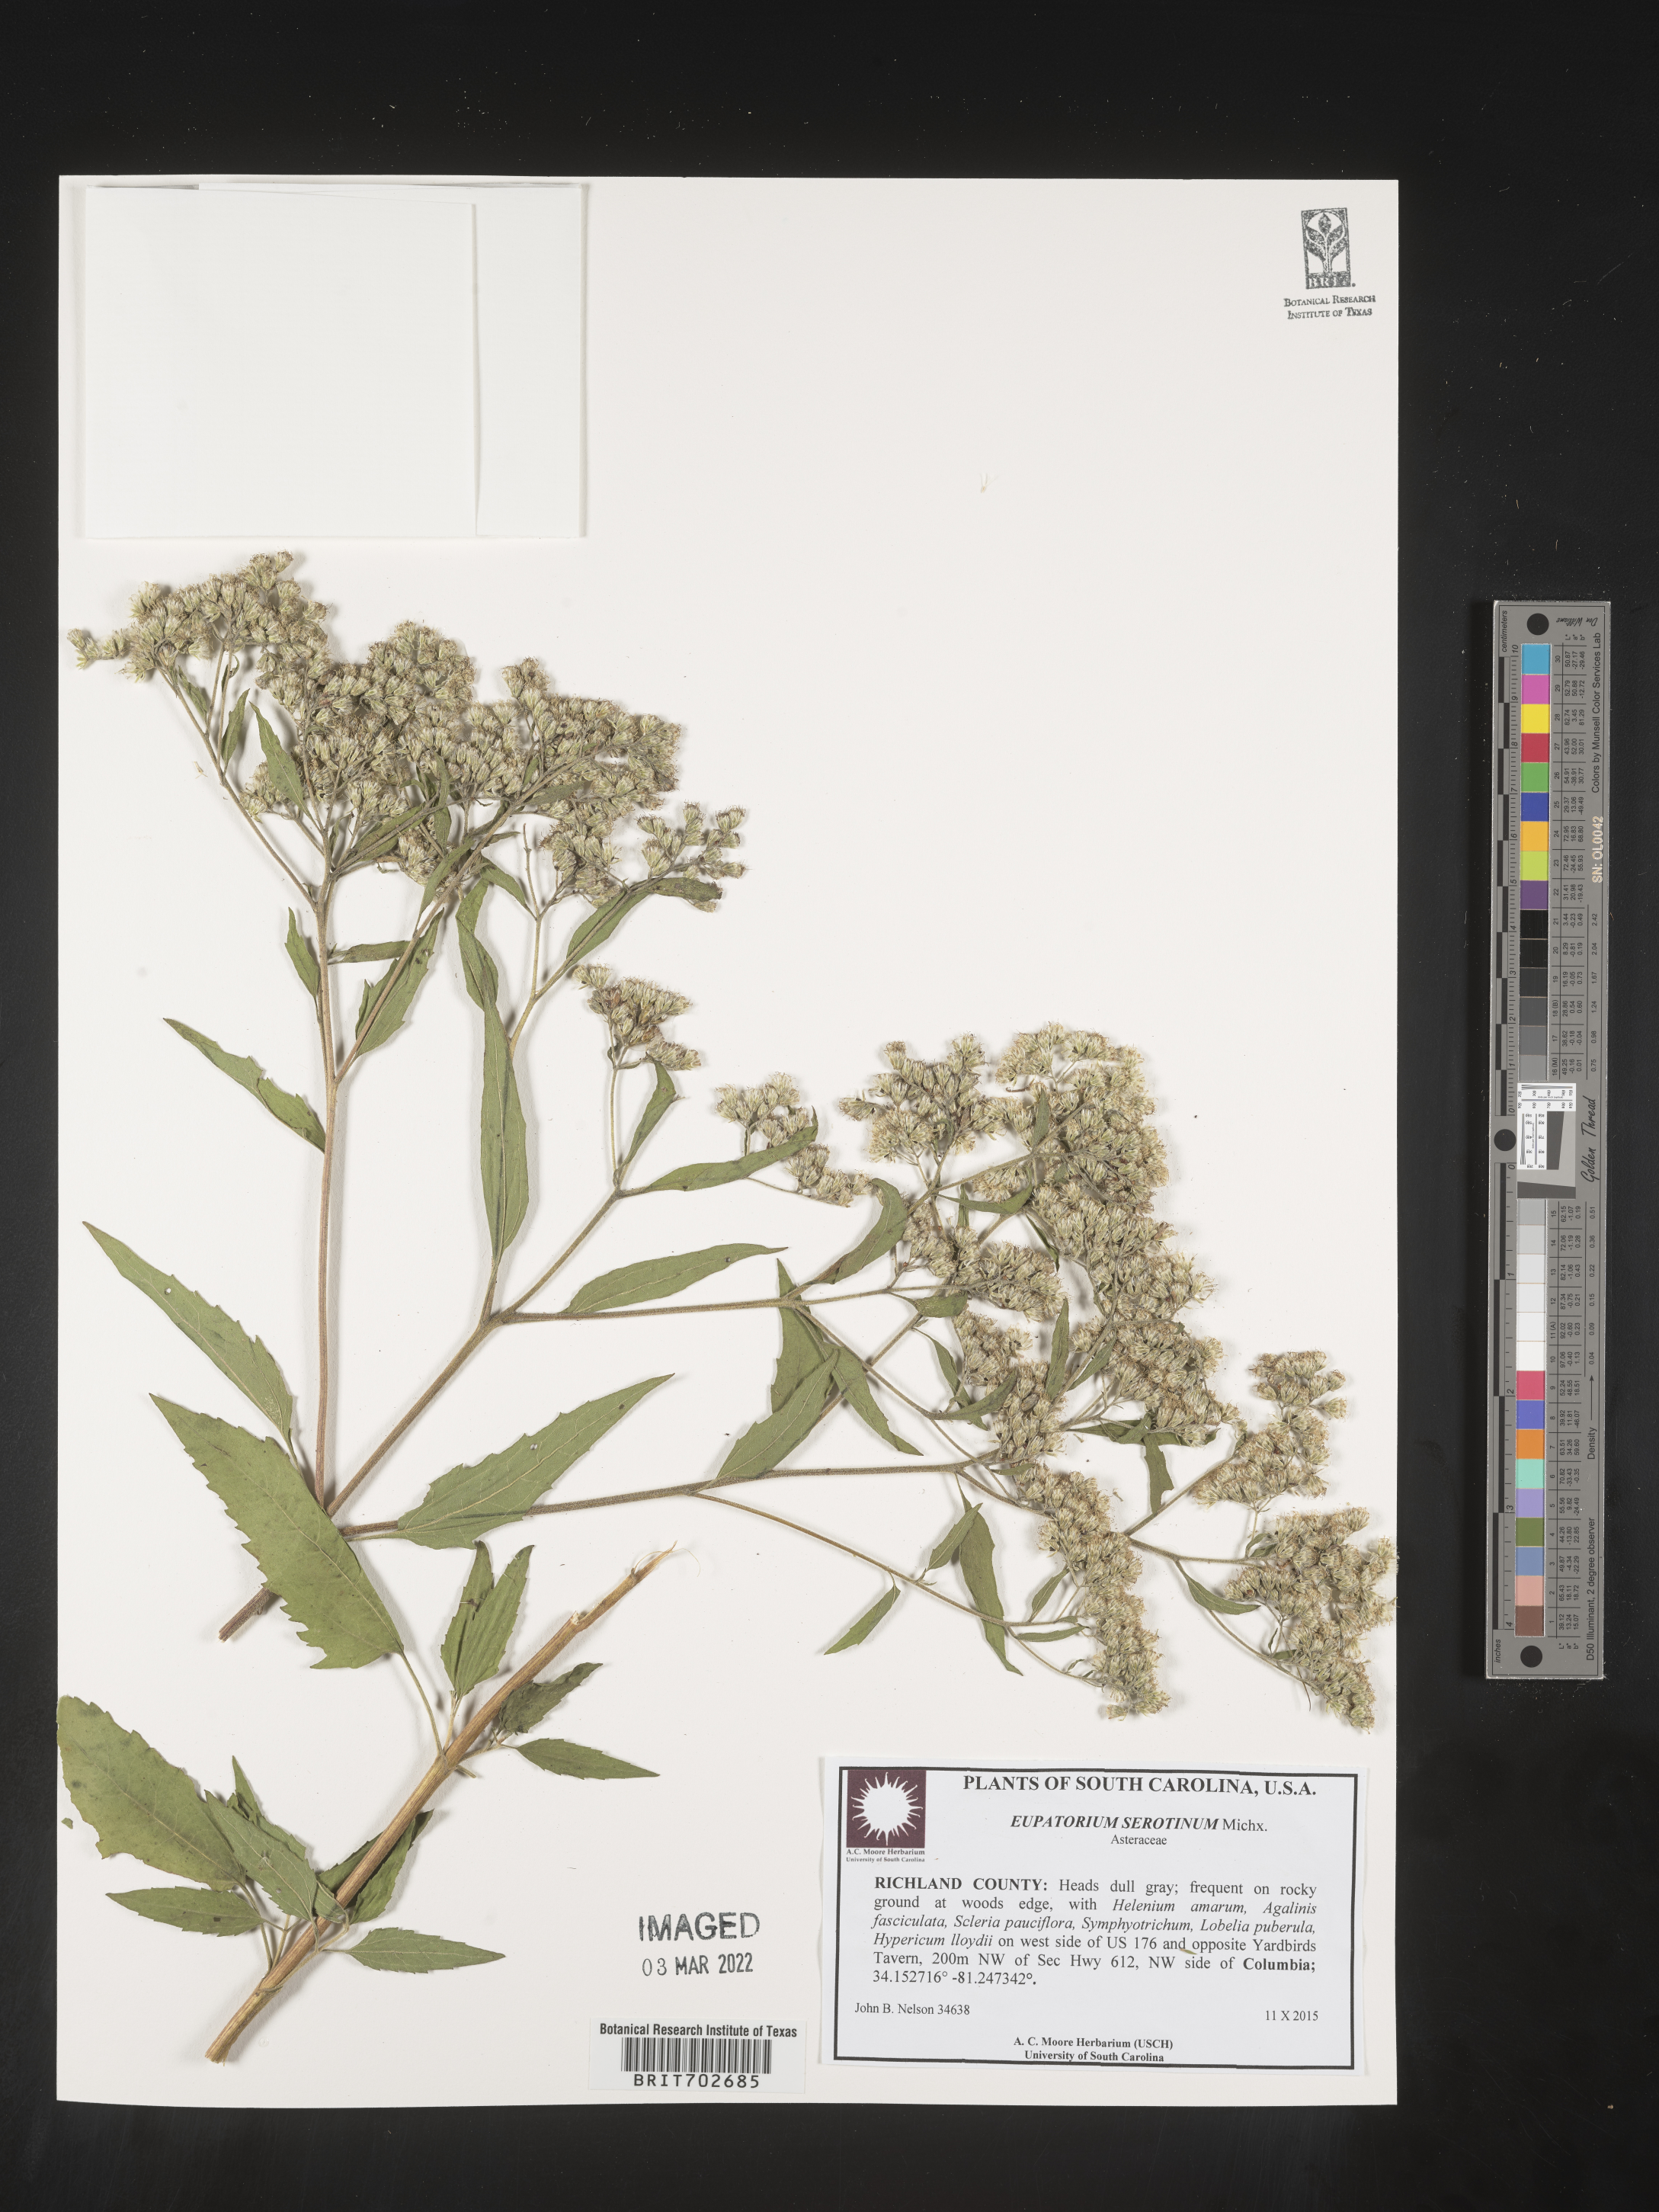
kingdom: Plantae
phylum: Tracheophyta
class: Magnoliopsida
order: Asterales
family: Asteraceae
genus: Eupatorium
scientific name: Eupatorium serotinum
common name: Late boneset
